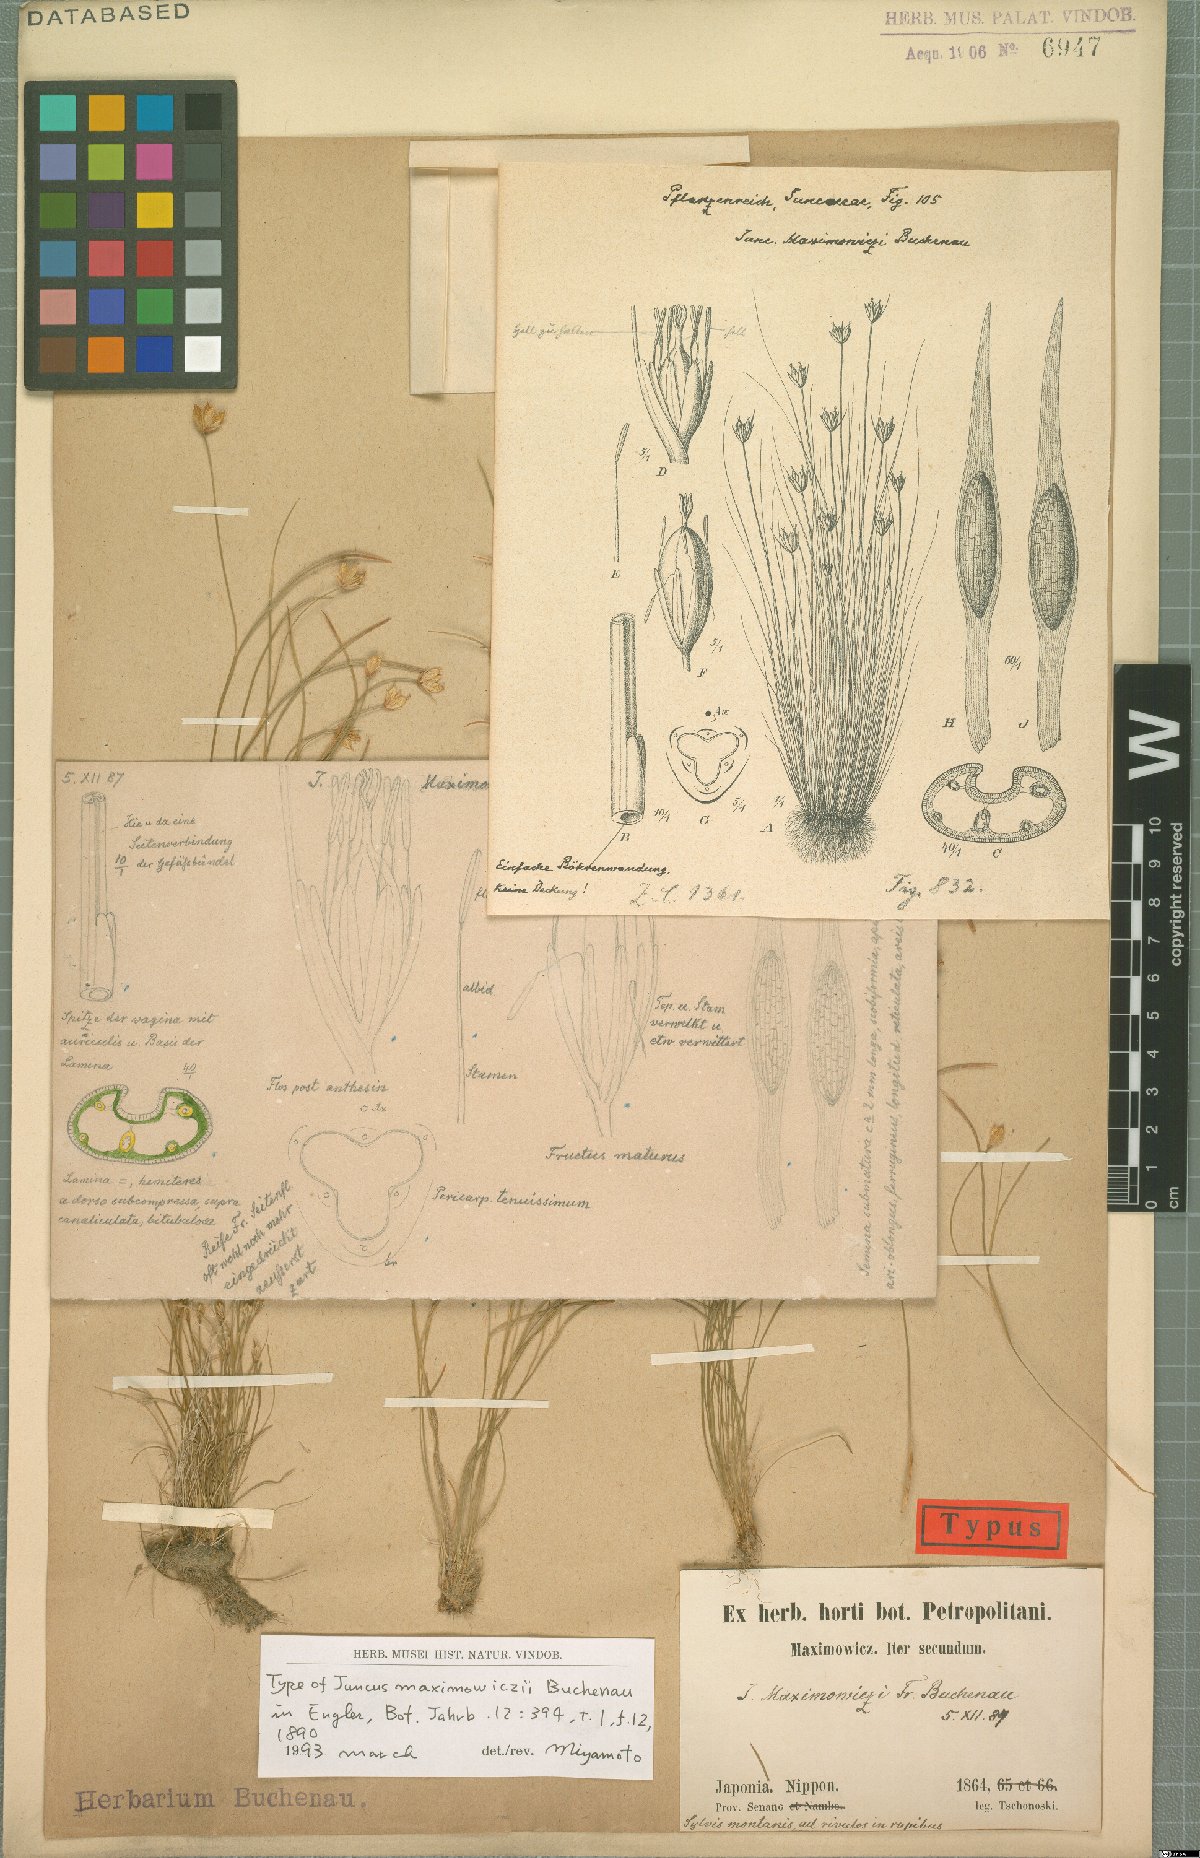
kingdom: Plantae
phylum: Tracheophyta
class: Liliopsida
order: Poales
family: Juncaceae
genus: Juncus
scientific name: Juncus maximowiczii
